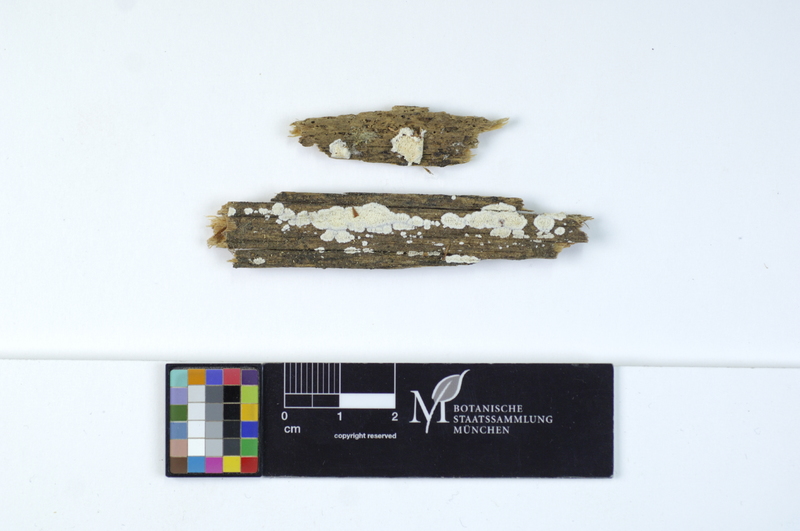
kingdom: Fungi
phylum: Basidiomycota
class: Agaricomycetes
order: Polyporales
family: Incrustoporiaceae
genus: Incrustoporia
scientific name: Incrustoporia papyracea
